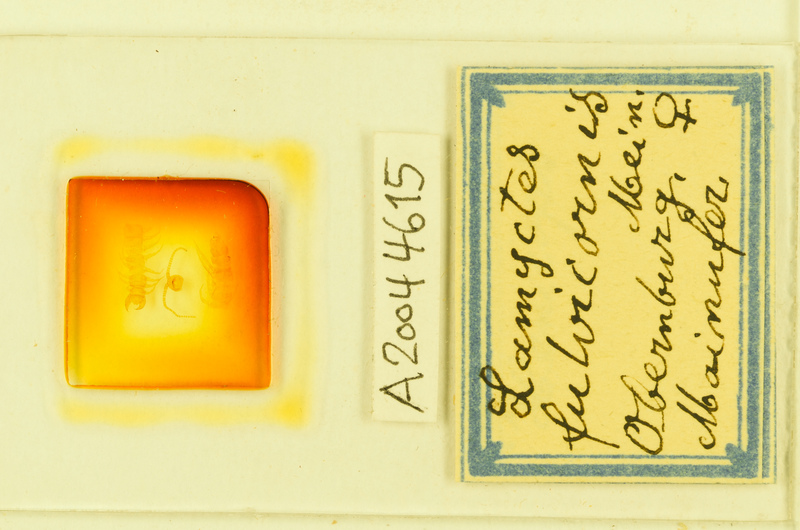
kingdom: Animalia
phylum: Arthropoda
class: Chilopoda
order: Lithobiomorpha
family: Henicopidae
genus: Lamyctes
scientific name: Lamyctes emarginatus
